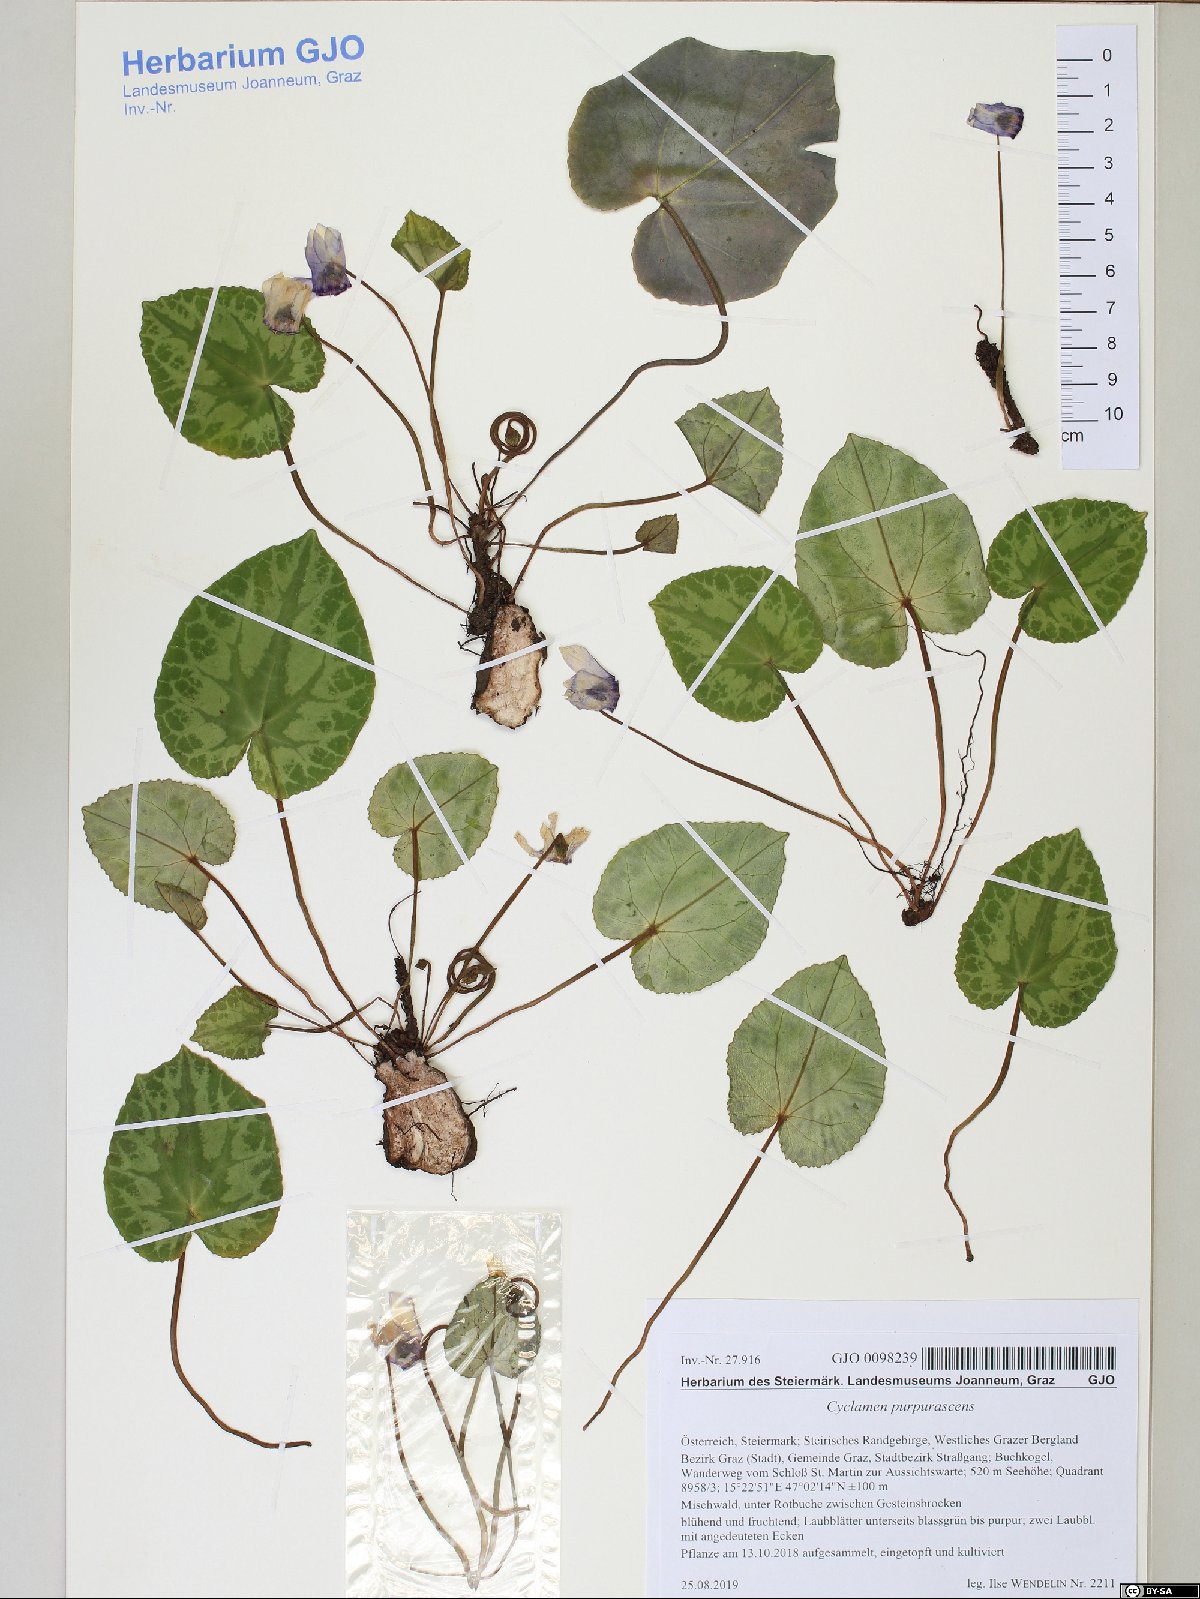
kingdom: Plantae
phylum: Tracheophyta
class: Magnoliopsida
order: Ericales
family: Primulaceae
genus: Cyclamen
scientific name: Cyclamen purpurascens
